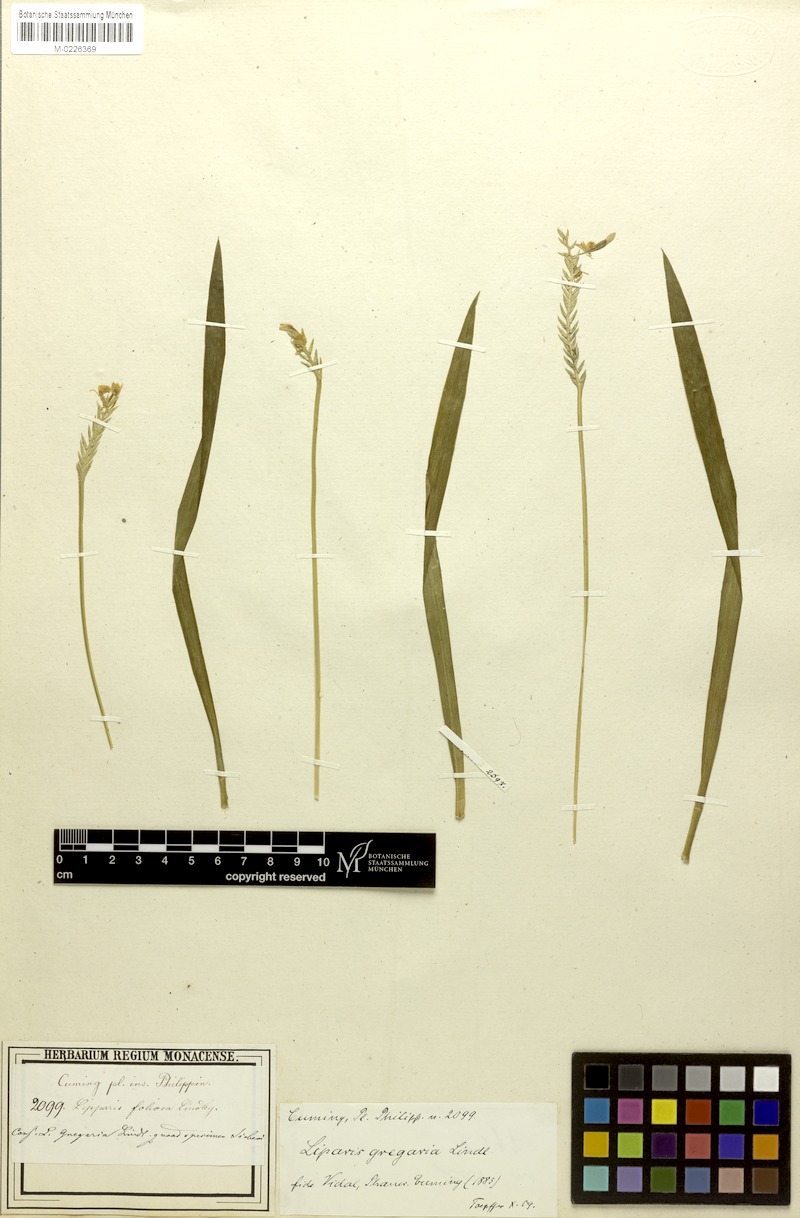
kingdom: Plantae
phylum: Tracheophyta
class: Liliopsida
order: Asparagales
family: Orchidaceae
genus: Stichorkis
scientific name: Stichorkis distichis
